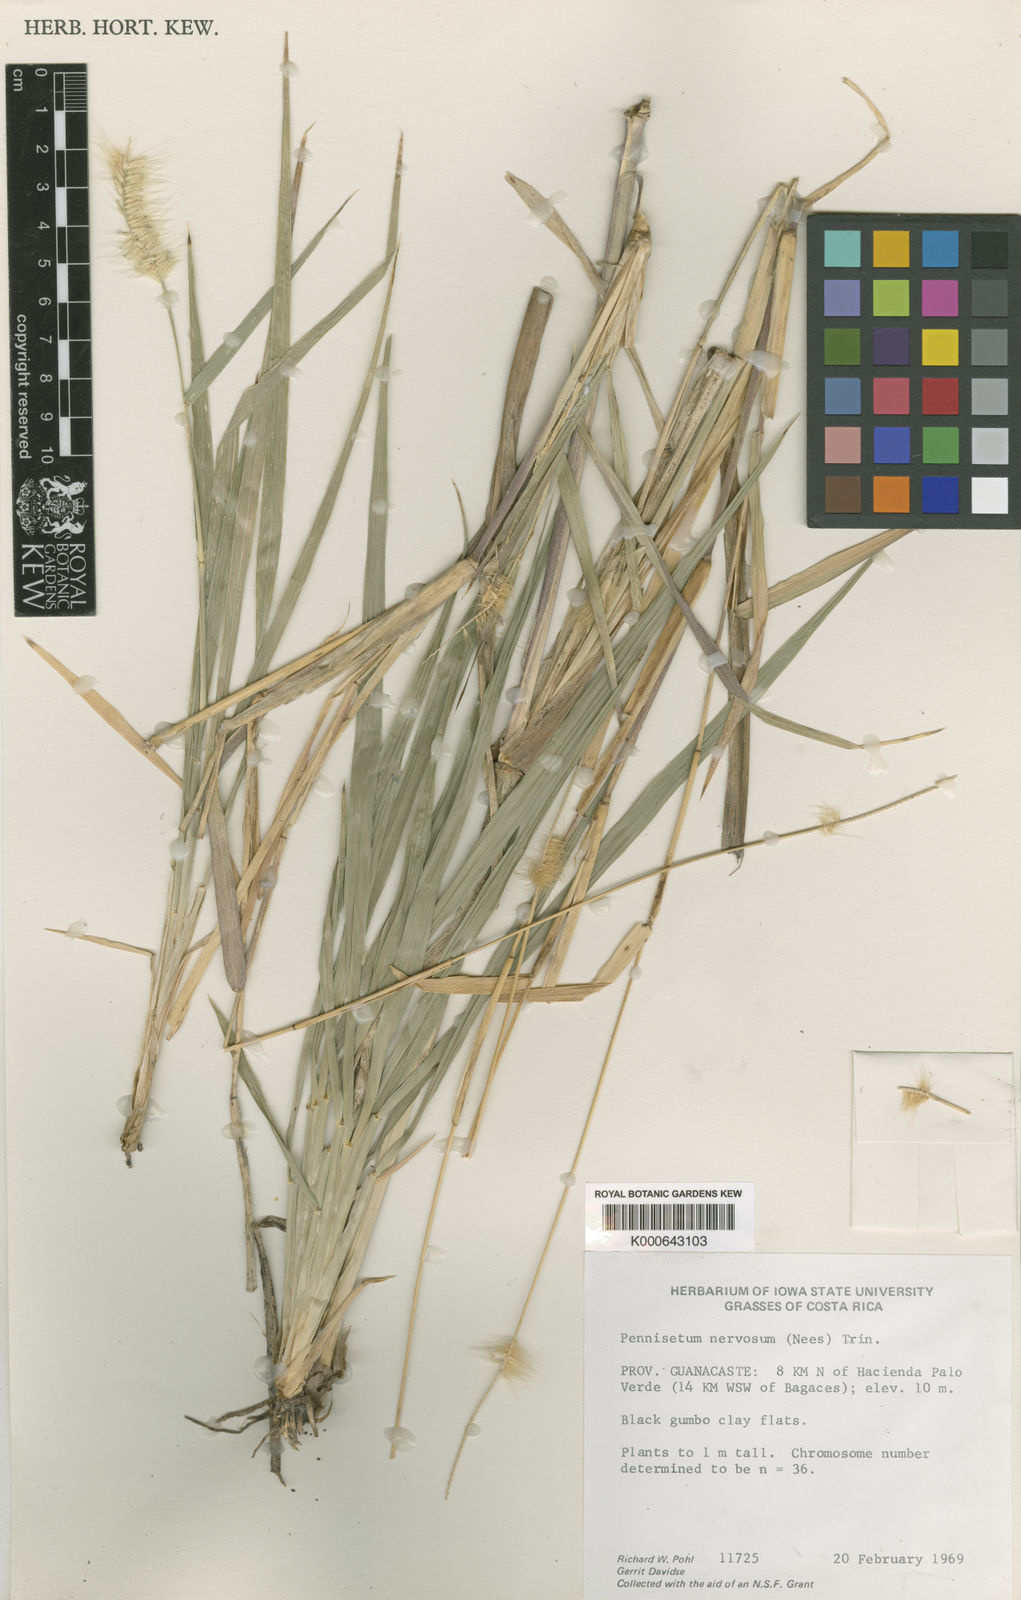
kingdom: Plantae
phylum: Tracheophyta
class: Liliopsida
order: Poales
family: Poaceae
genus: Cenchrus
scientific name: Cenchrus tempisquensis
